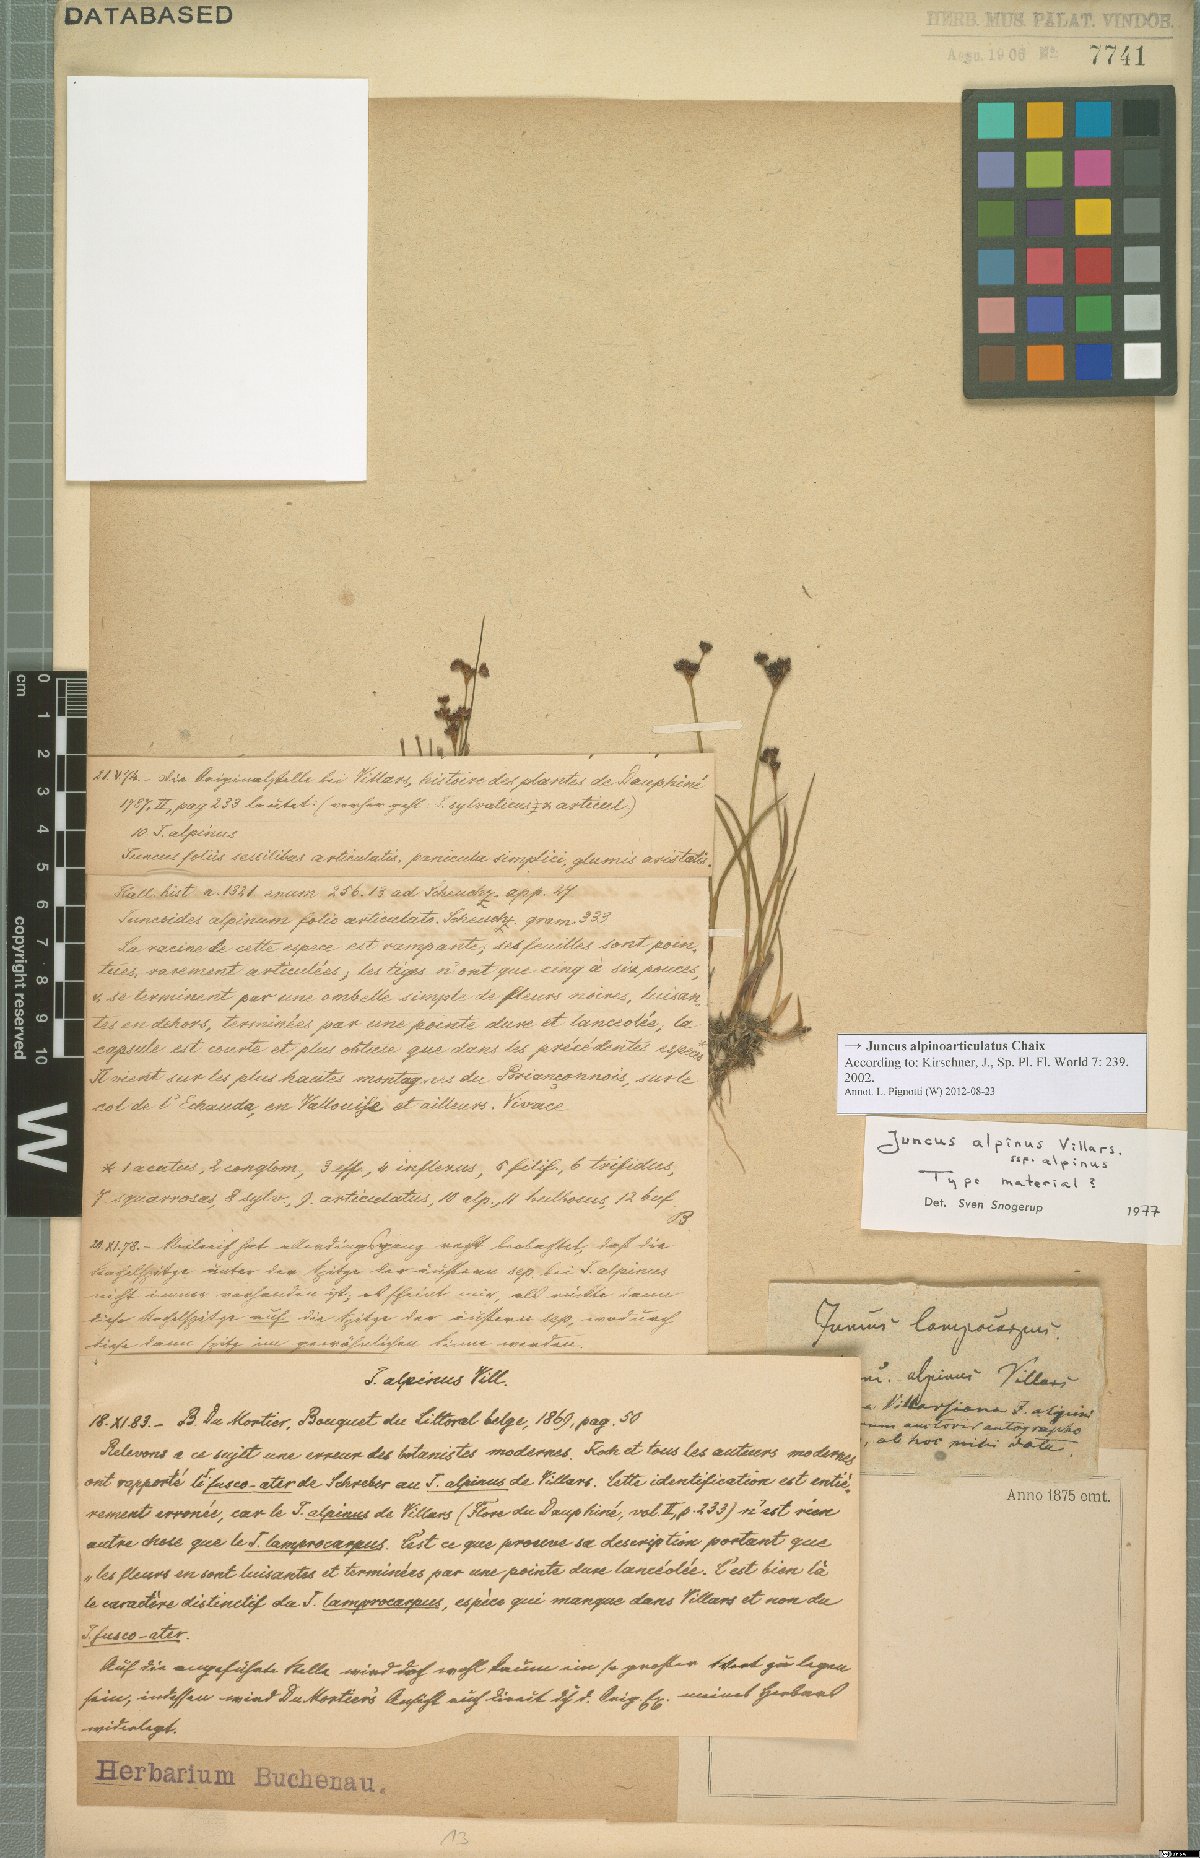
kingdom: Plantae
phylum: Tracheophyta
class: Liliopsida
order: Poales
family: Juncaceae
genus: Juncus
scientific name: Juncus alpinoarticulatus
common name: Alpine rush
